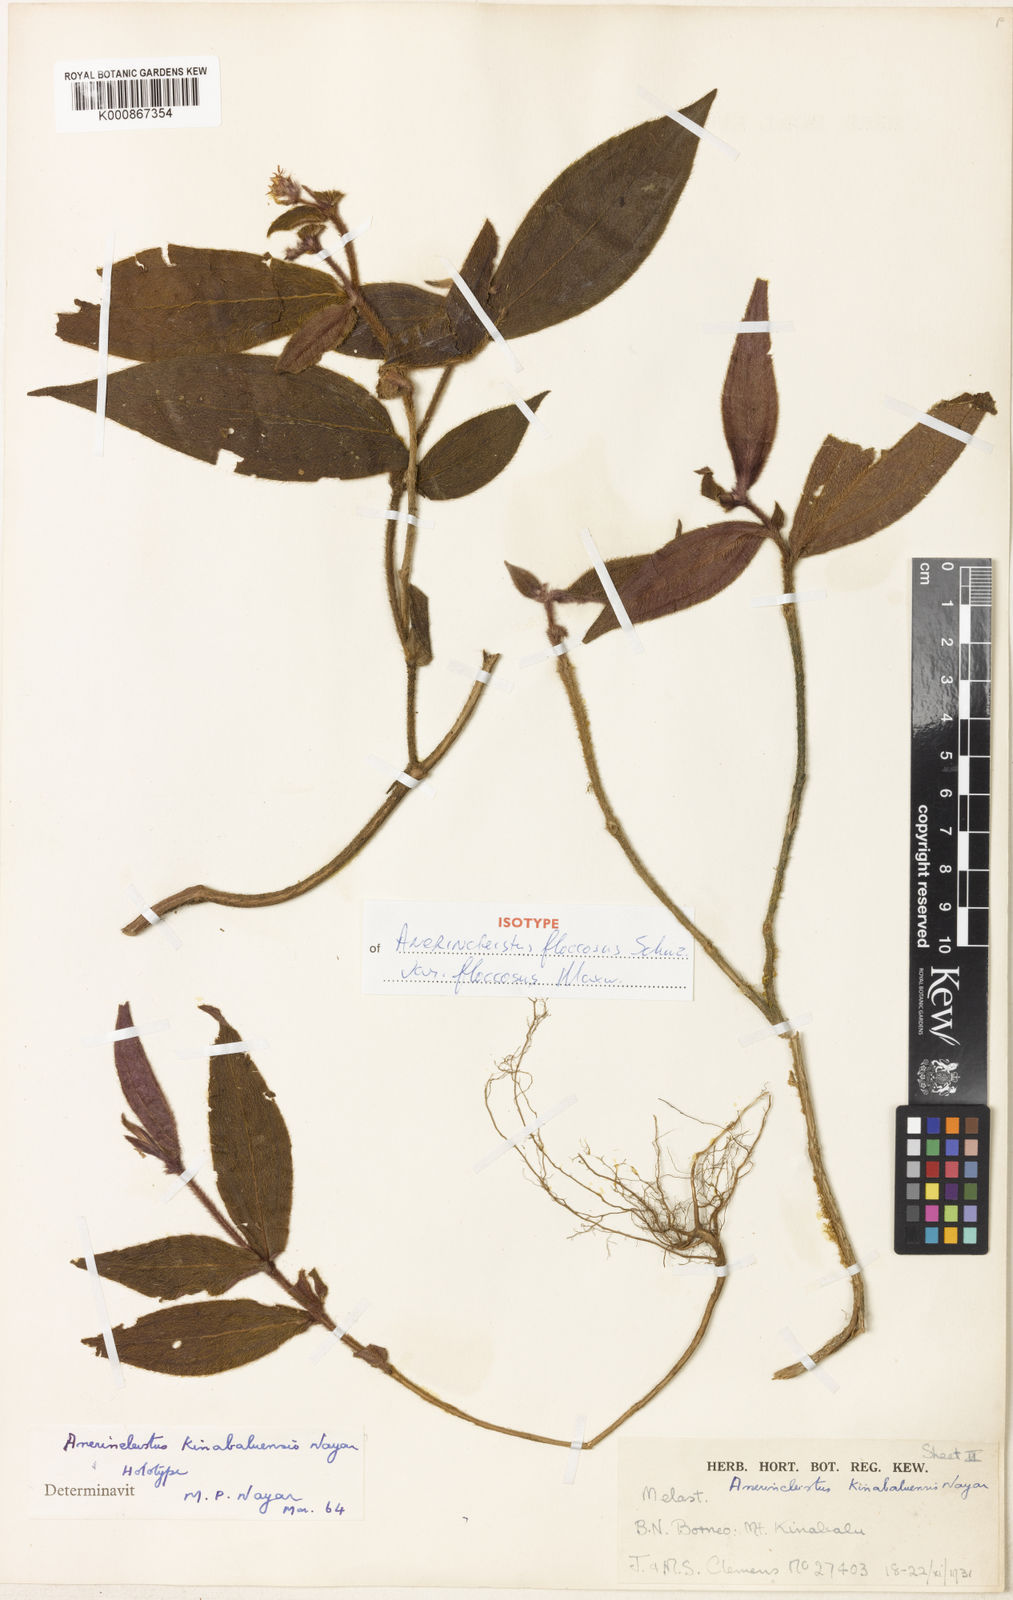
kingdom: Plantae
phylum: Tracheophyta
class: Magnoliopsida
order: Myrtales
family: Melastomataceae
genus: Anerincleistus
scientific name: Anerincleistus
